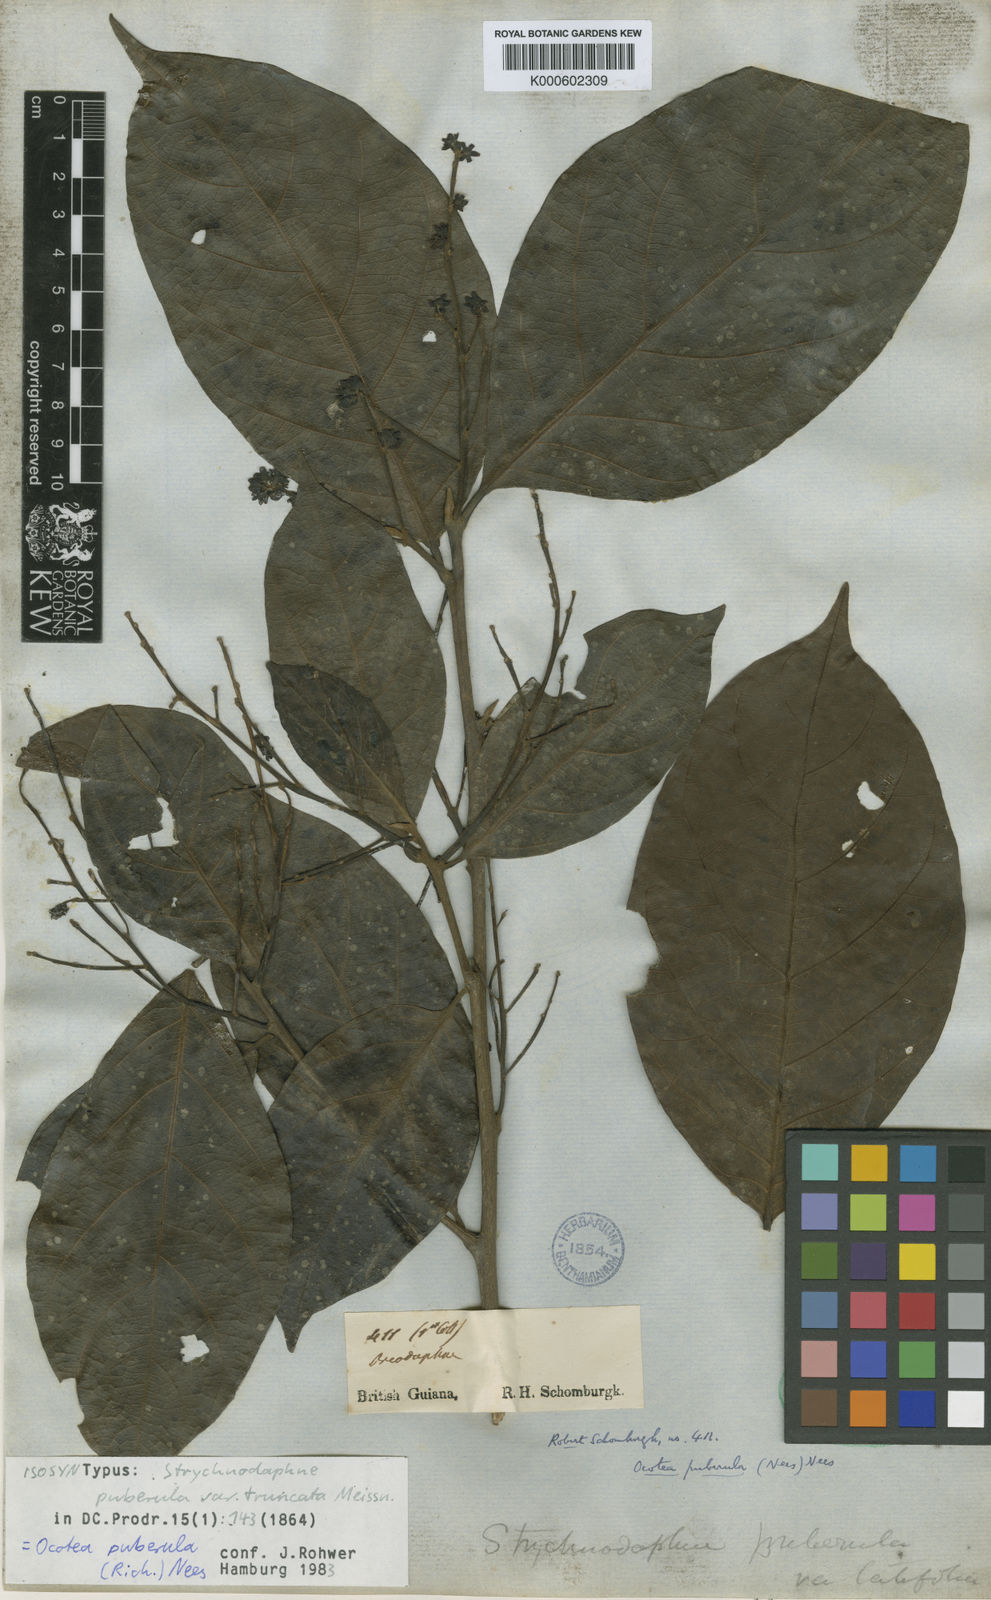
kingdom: Plantae
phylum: Tracheophyta
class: Magnoliopsida
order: Laurales
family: Lauraceae
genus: Ocotea
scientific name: Ocotea puberula
